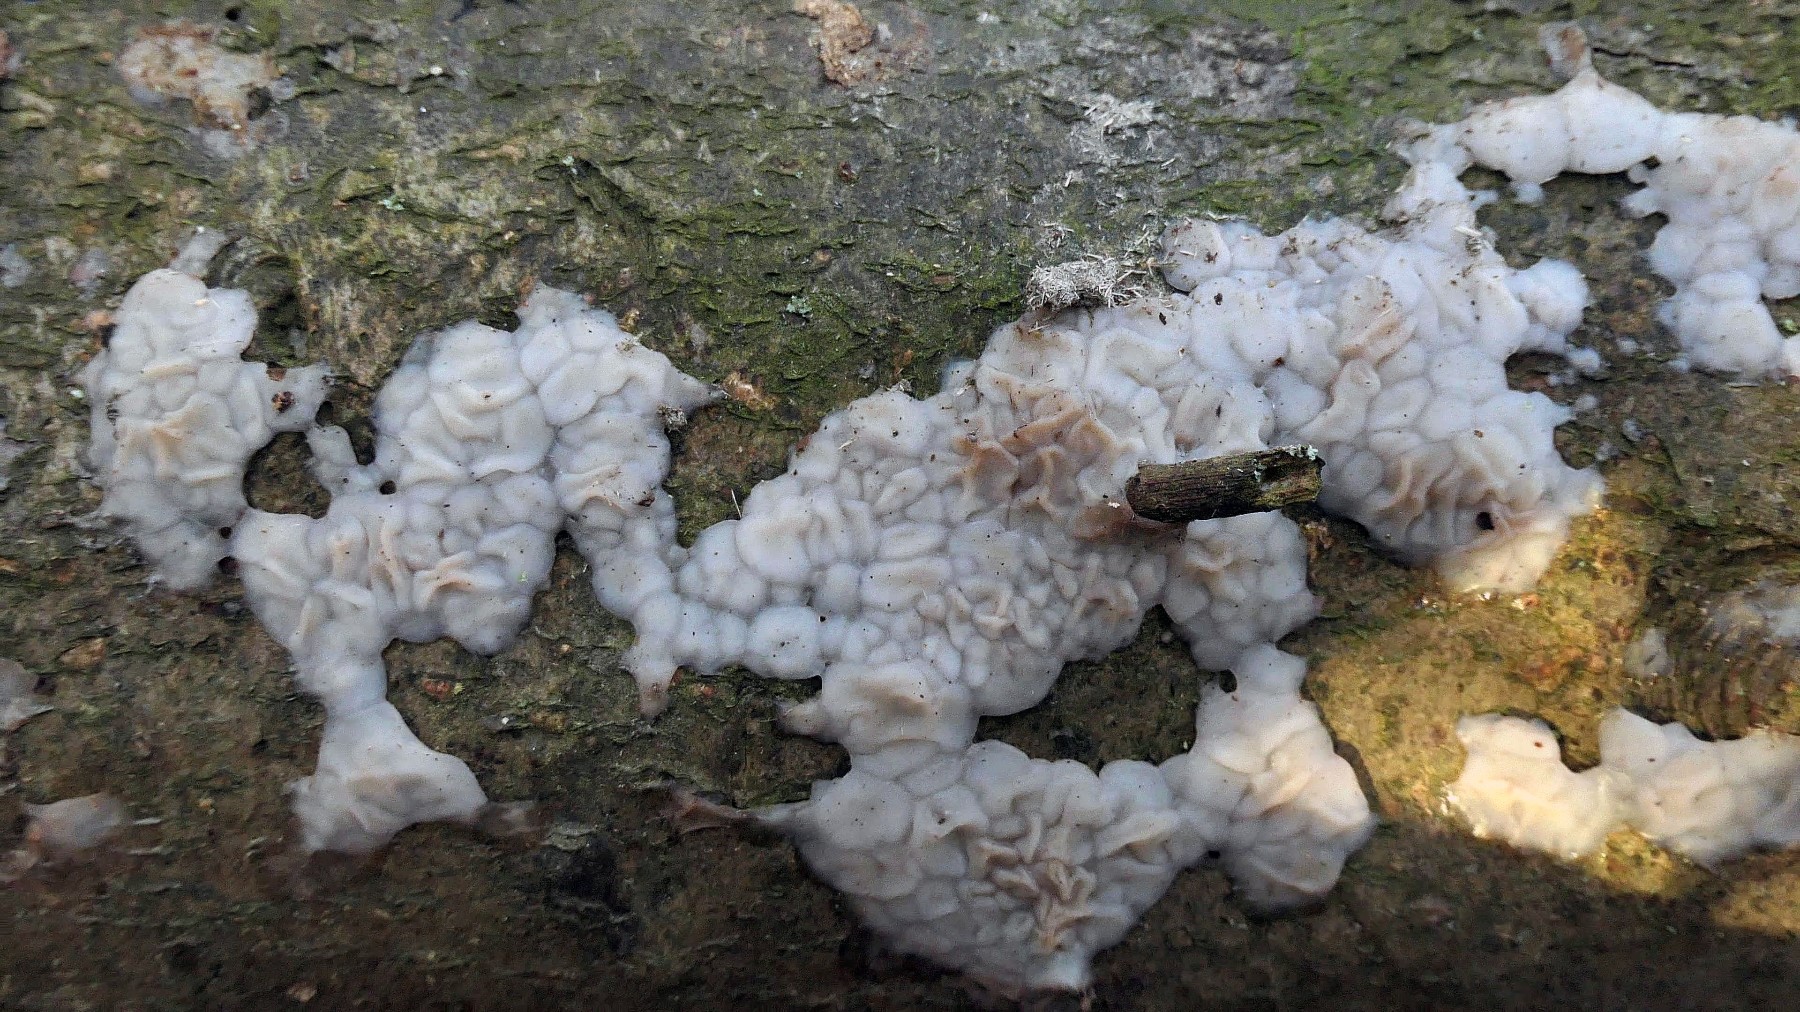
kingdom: Fungi
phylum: Basidiomycota
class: Agaricomycetes
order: Auriculariales
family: Auriculariaceae
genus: Exidia
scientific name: Exidia thuretiana
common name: hvidlig bævretop
